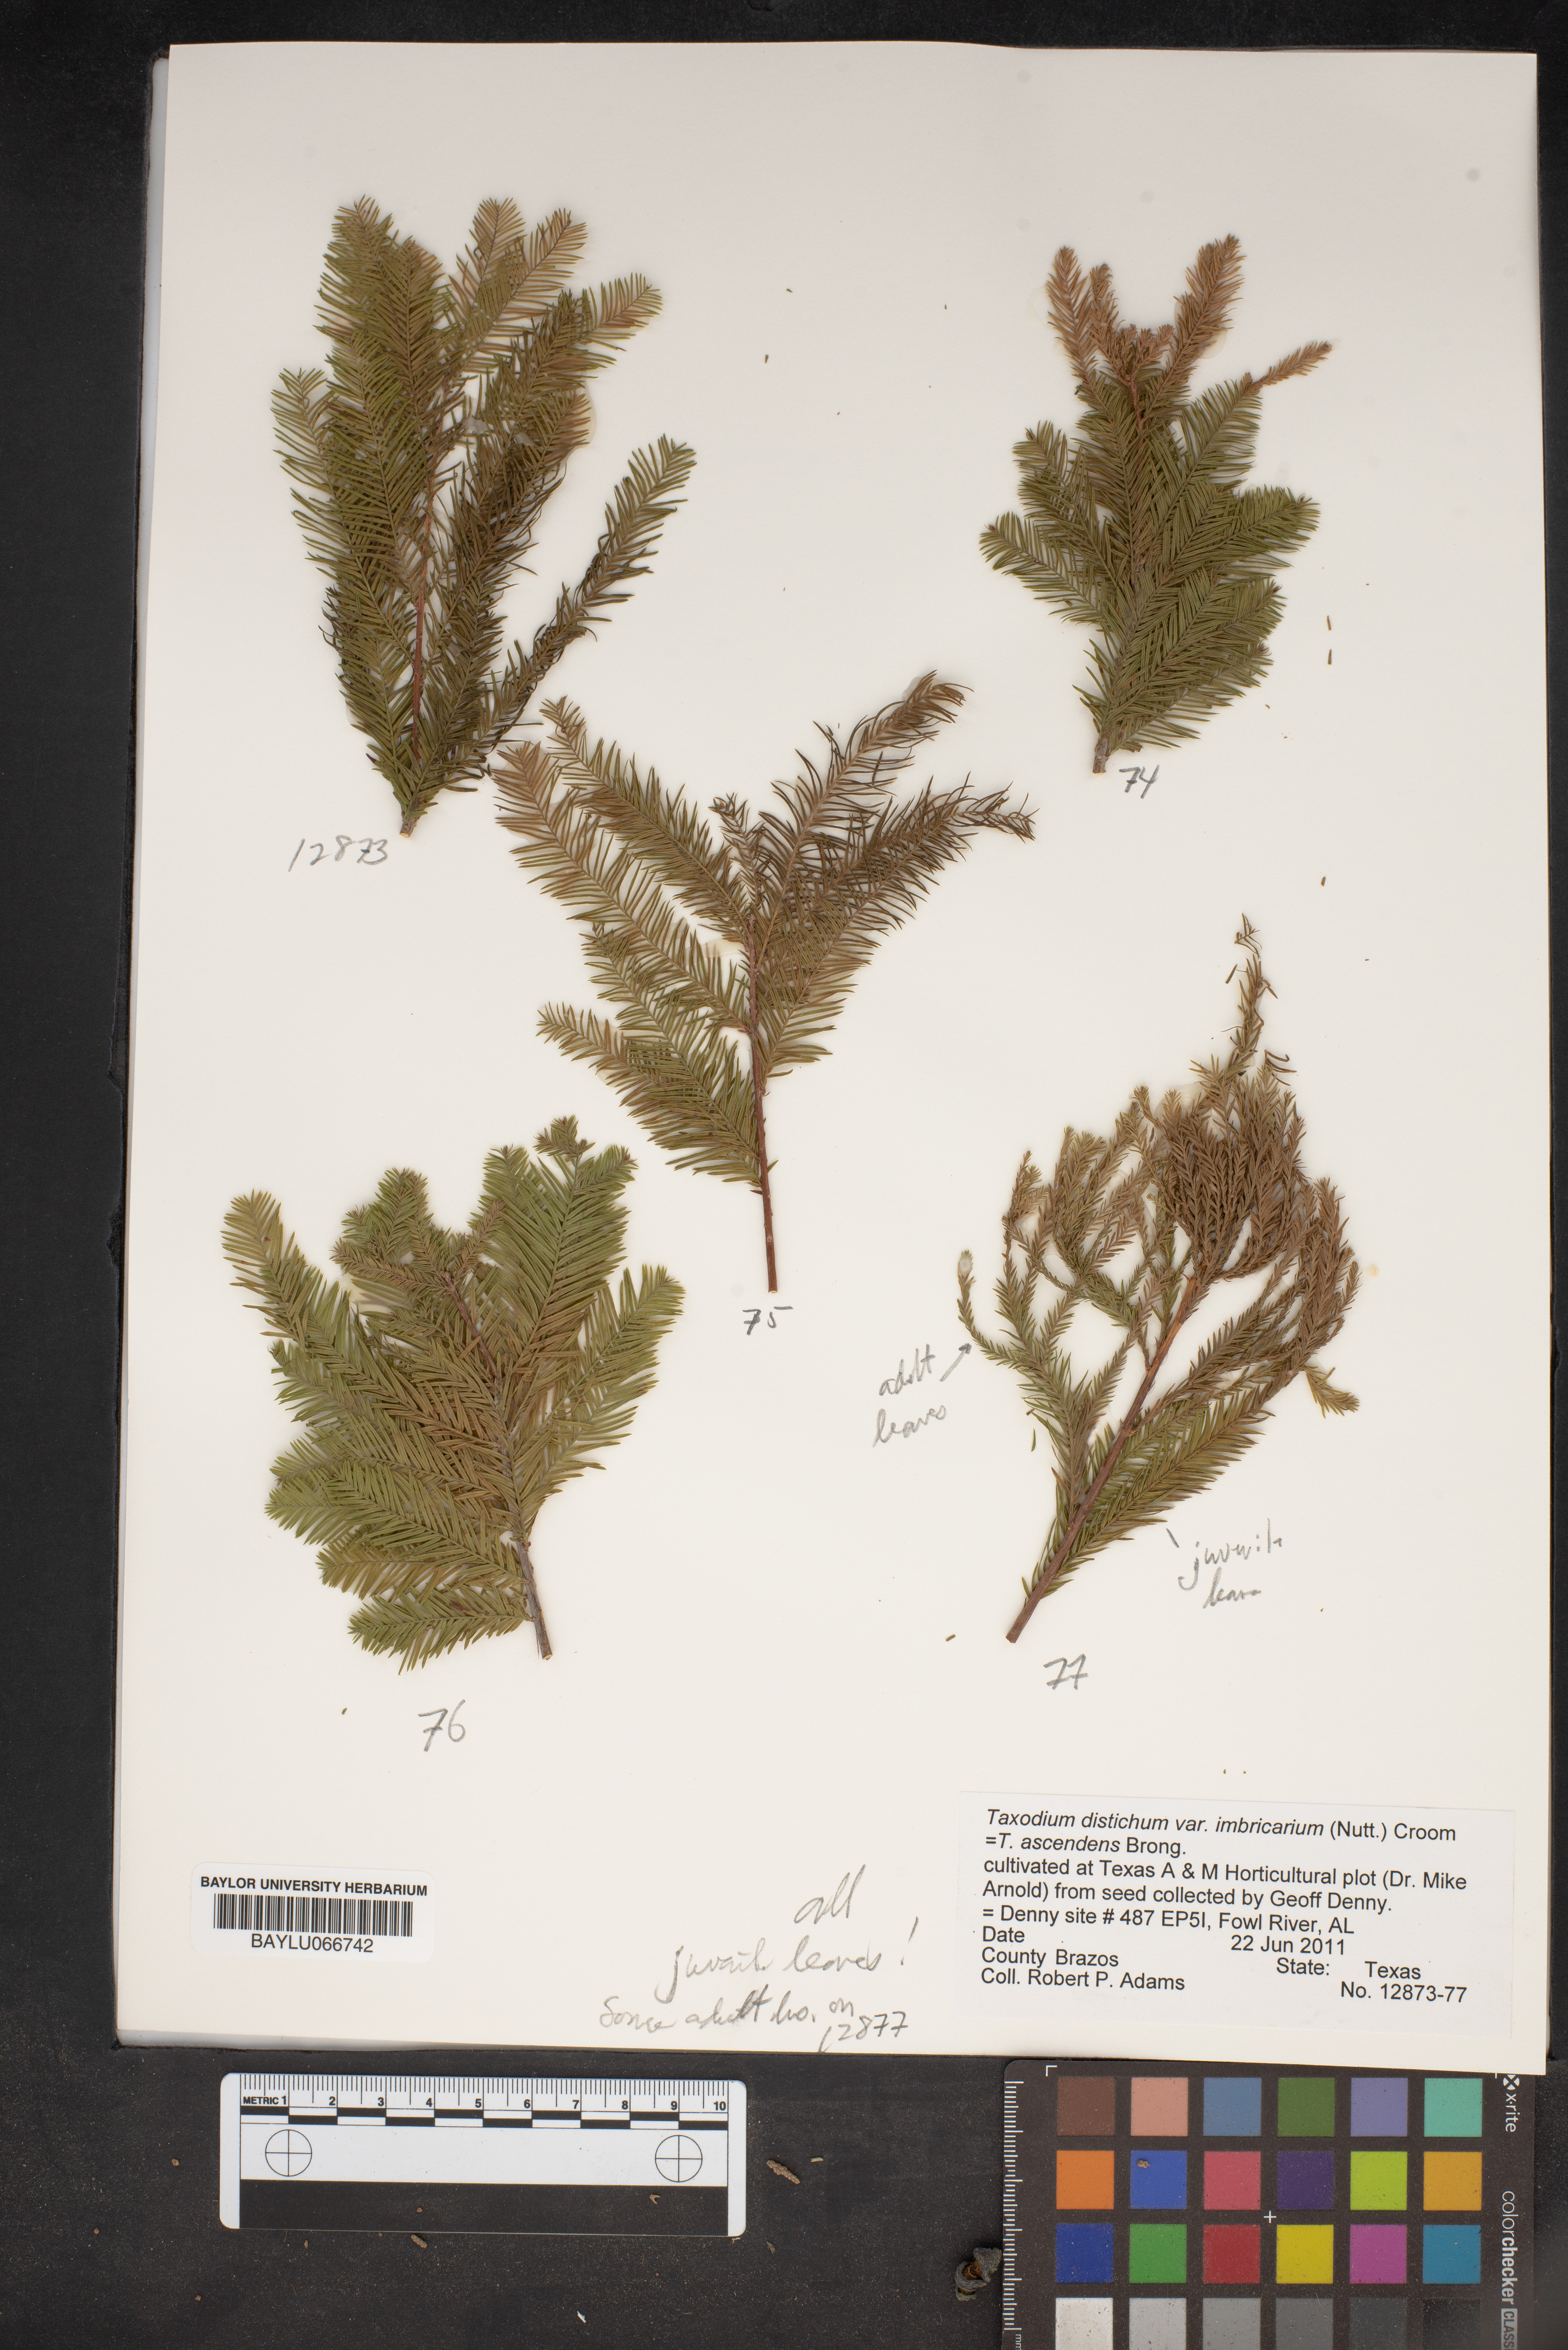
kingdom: Plantae
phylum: Tracheophyta
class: Pinopsida
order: Pinales
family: Cupressaceae
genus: Taxodium
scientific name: Taxodium distichum
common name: Bald cypress
